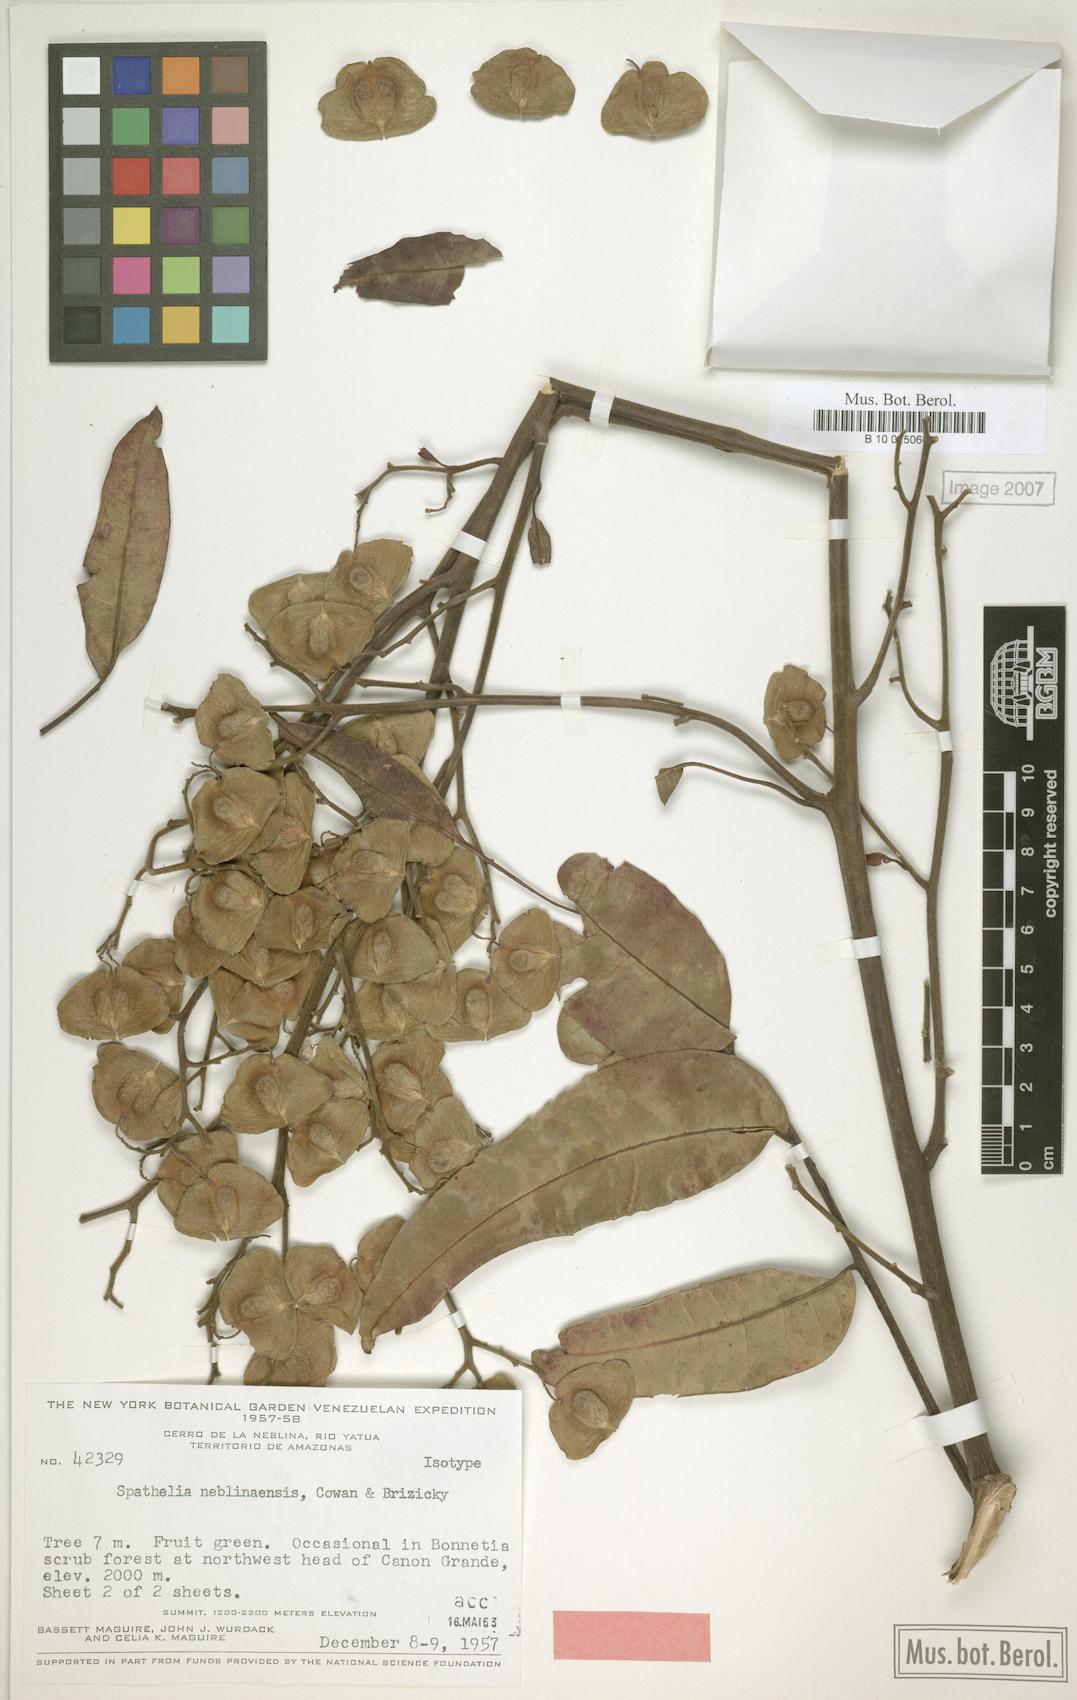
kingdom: Plantae
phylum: Tracheophyta
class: Magnoliopsida
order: Sapindales
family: Rutaceae
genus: Sohnreyia
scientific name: Sohnreyia ulei
